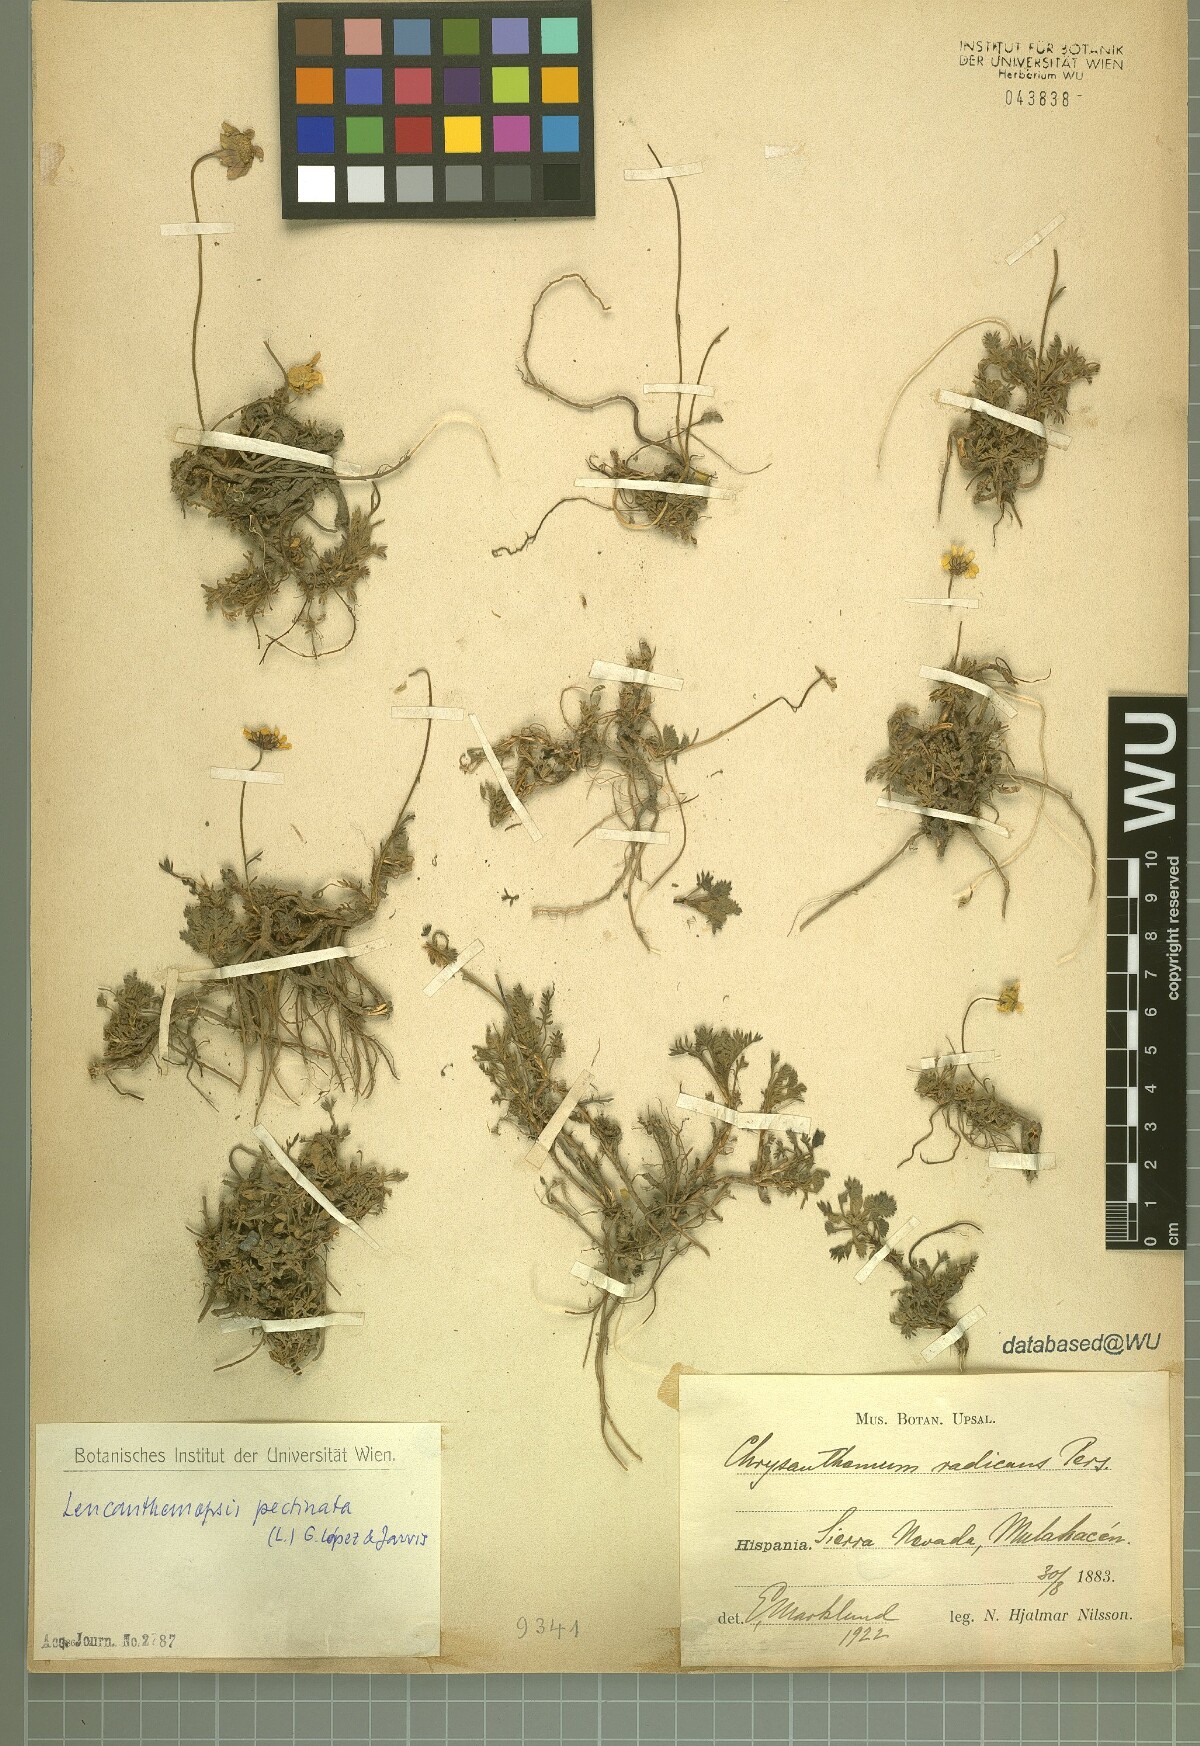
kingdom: Plantae
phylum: Tracheophyta
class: Magnoliopsida
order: Asterales
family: Asteraceae
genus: Leucanthemopsis
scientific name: Leucanthemopsis pectinata
